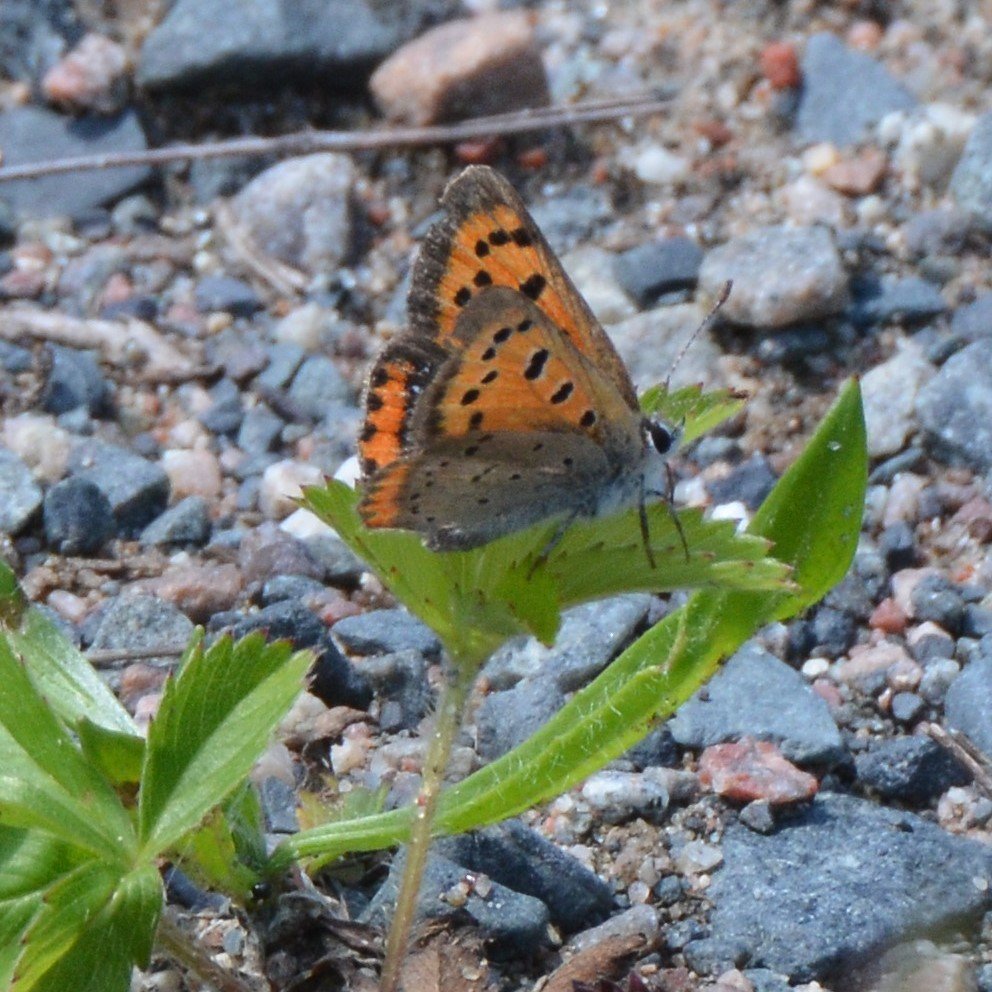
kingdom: Animalia
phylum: Arthropoda
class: Insecta
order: Lepidoptera
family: Lycaenidae
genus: Lycaena
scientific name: Lycaena phlaeas
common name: American Copper
